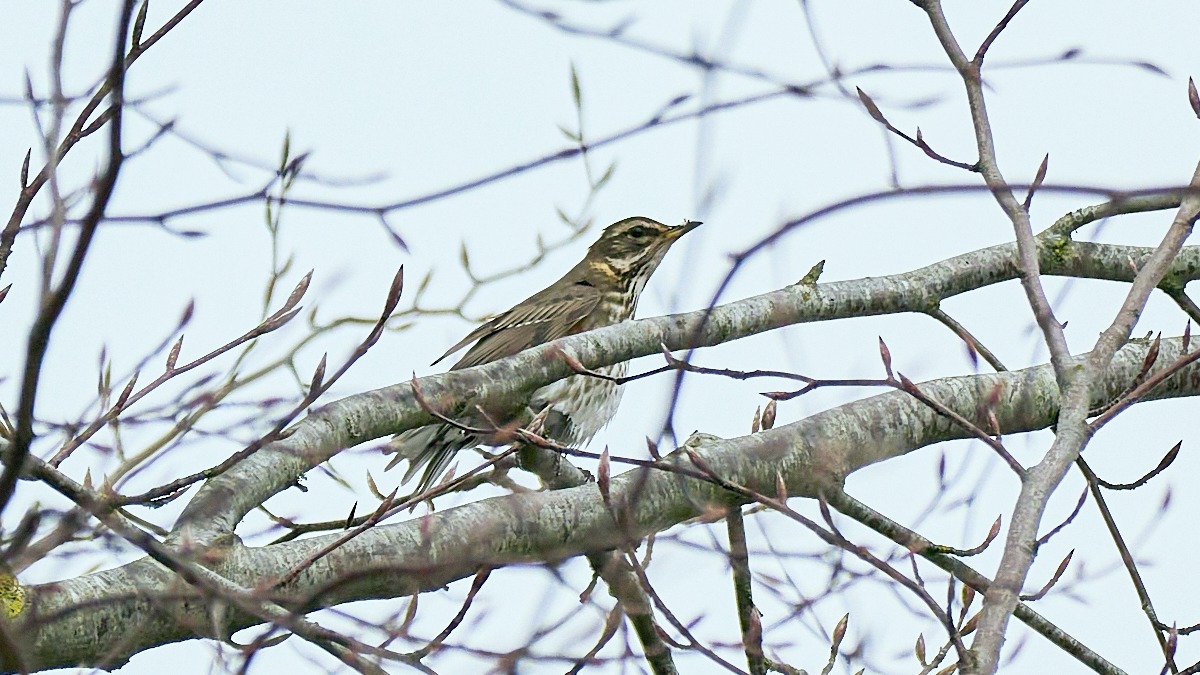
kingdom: Animalia
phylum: Chordata
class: Aves
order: Passeriformes
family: Turdidae
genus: Turdus
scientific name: Turdus iliacus
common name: Vindrossel
